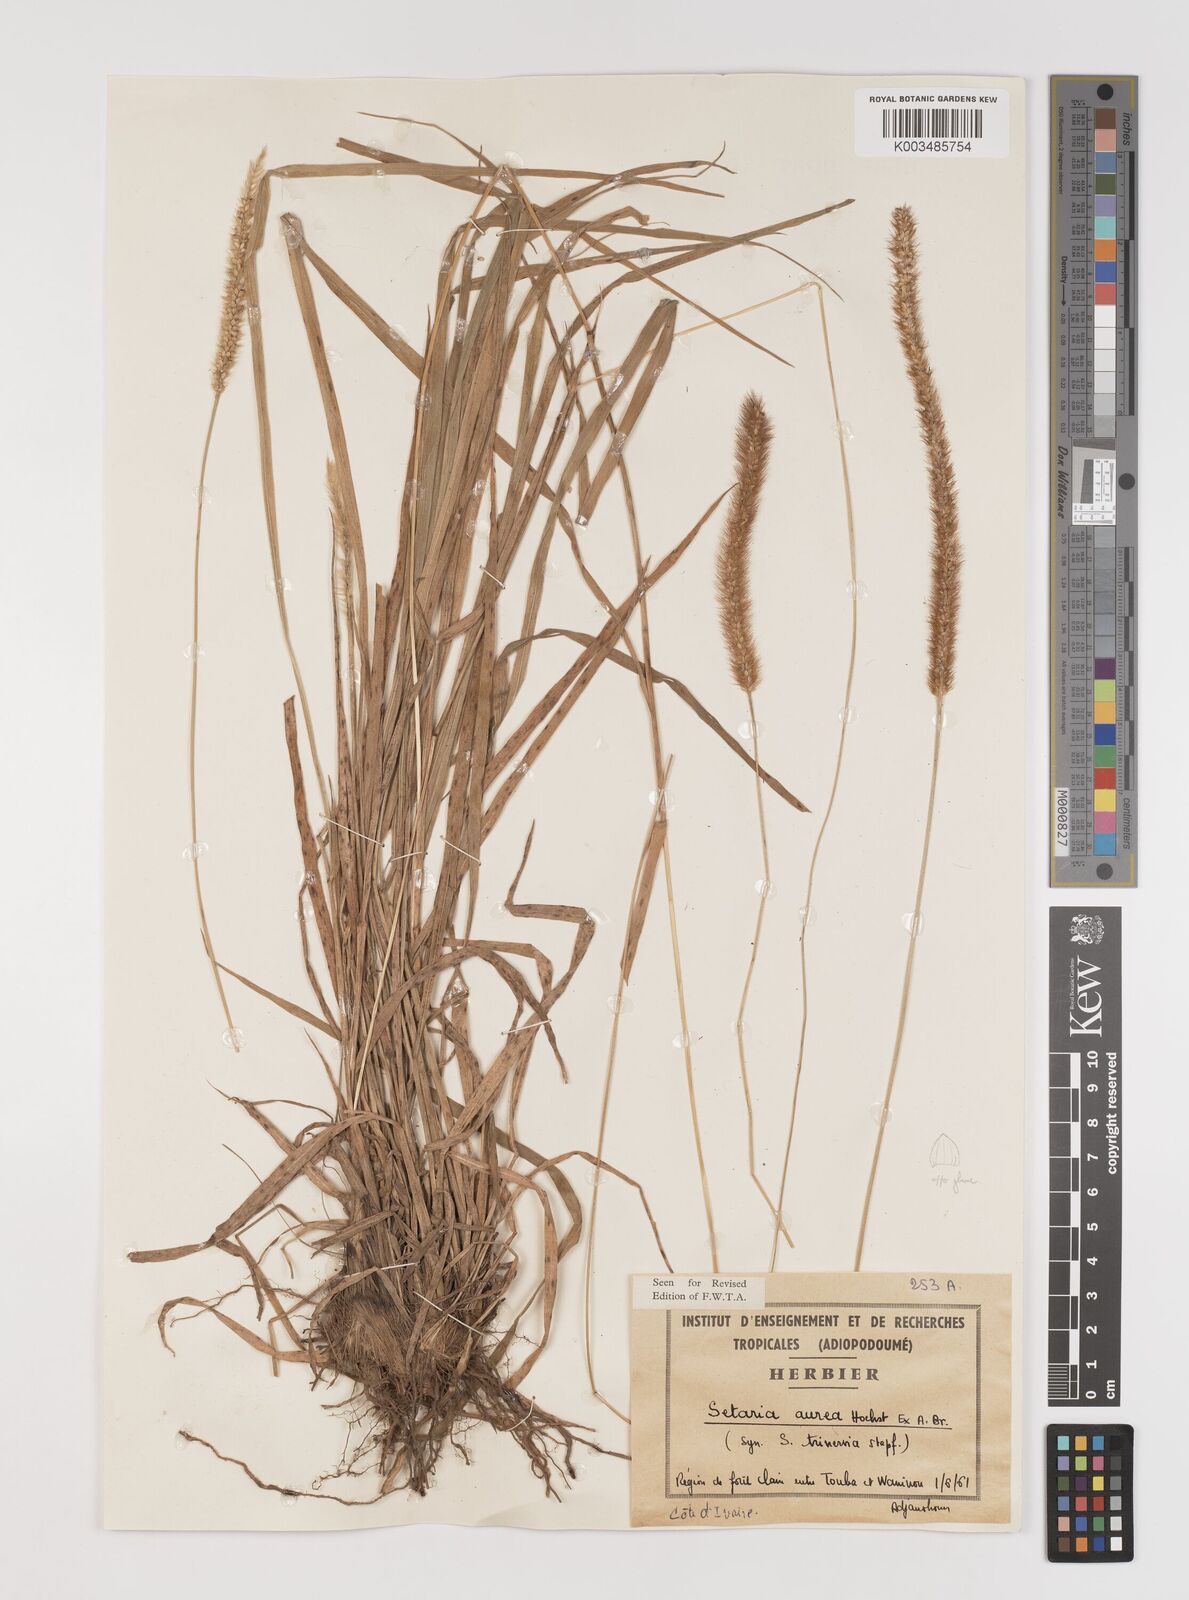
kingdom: Plantae
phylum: Tracheophyta
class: Liliopsida
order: Poales
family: Poaceae
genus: Setaria
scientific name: Setaria sphacelata
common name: African bristlegrass
